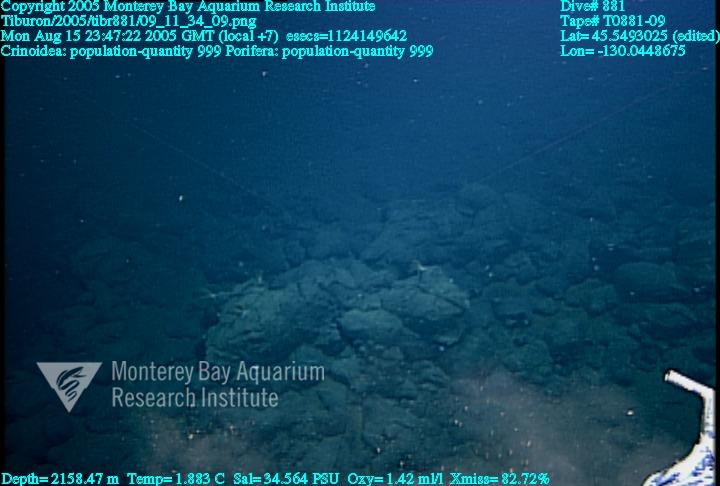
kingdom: Animalia
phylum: Porifera
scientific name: Porifera
